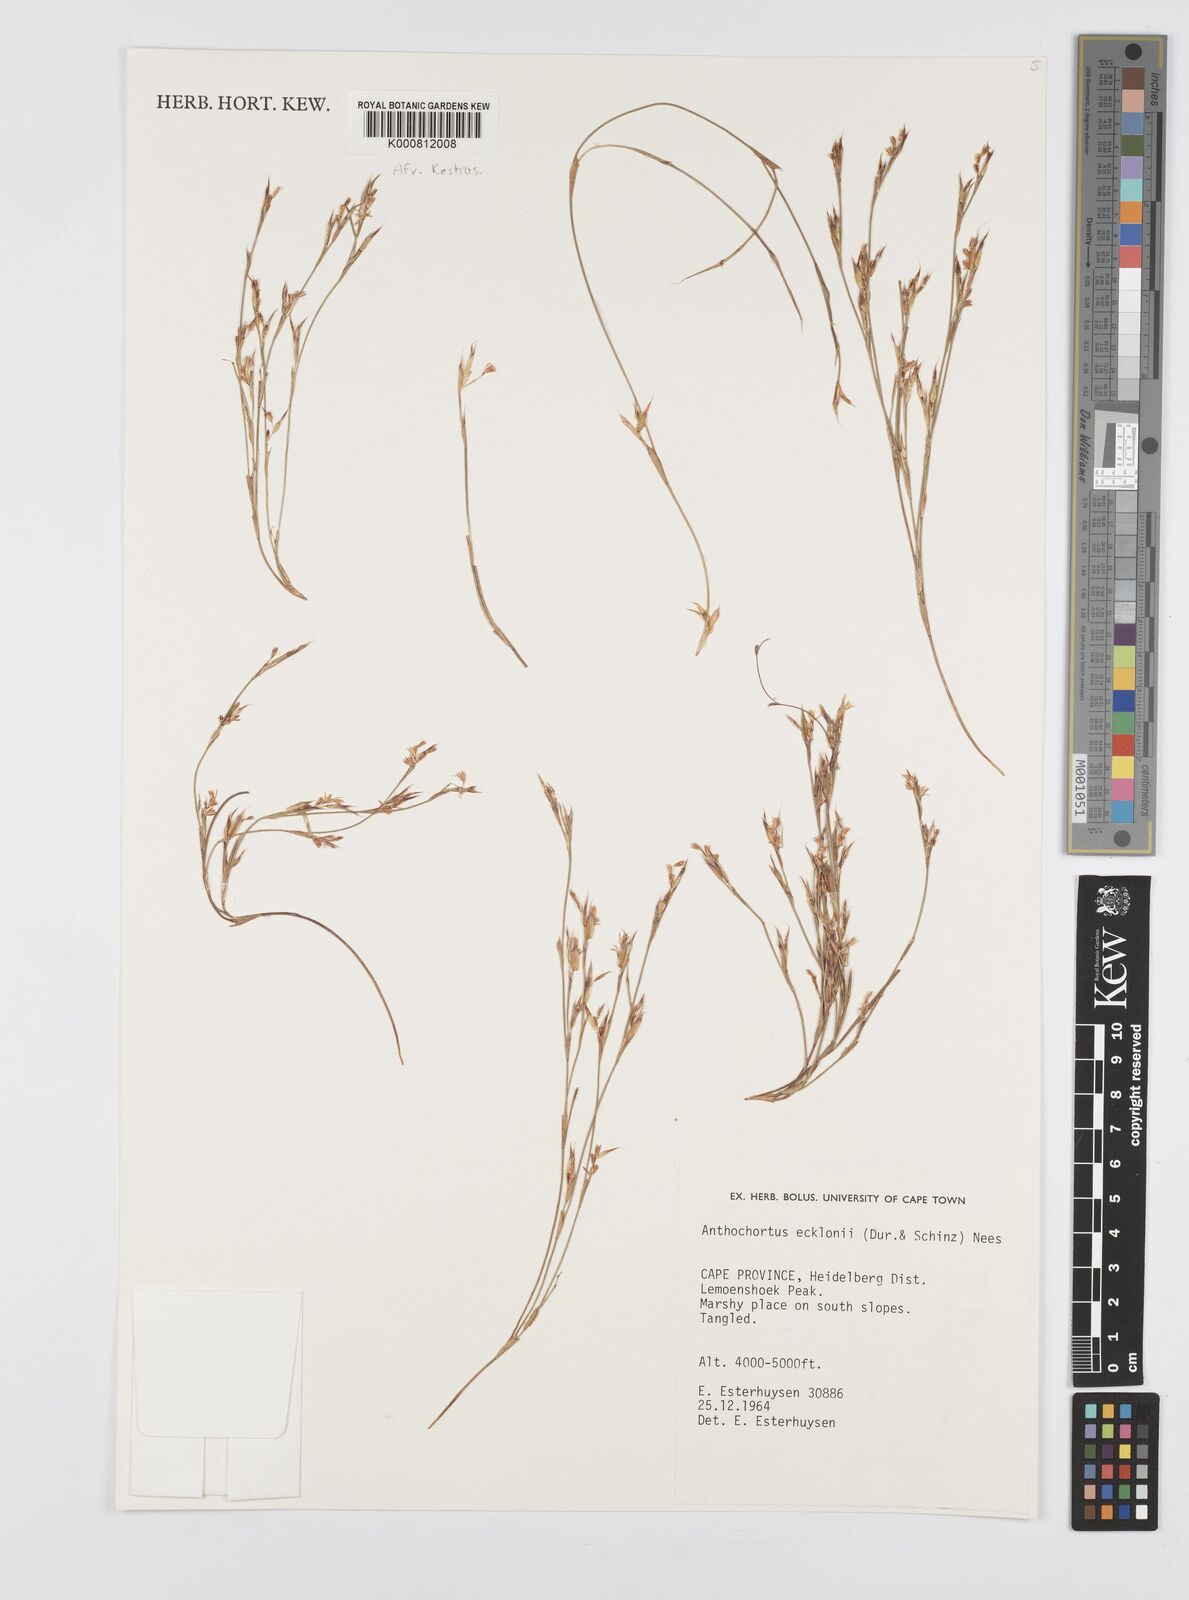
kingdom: Plantae
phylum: Tracheophyta
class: Liliopsida
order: Poales
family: Restionaceae
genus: Anthochortus
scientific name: Anthochortus ecklonii
